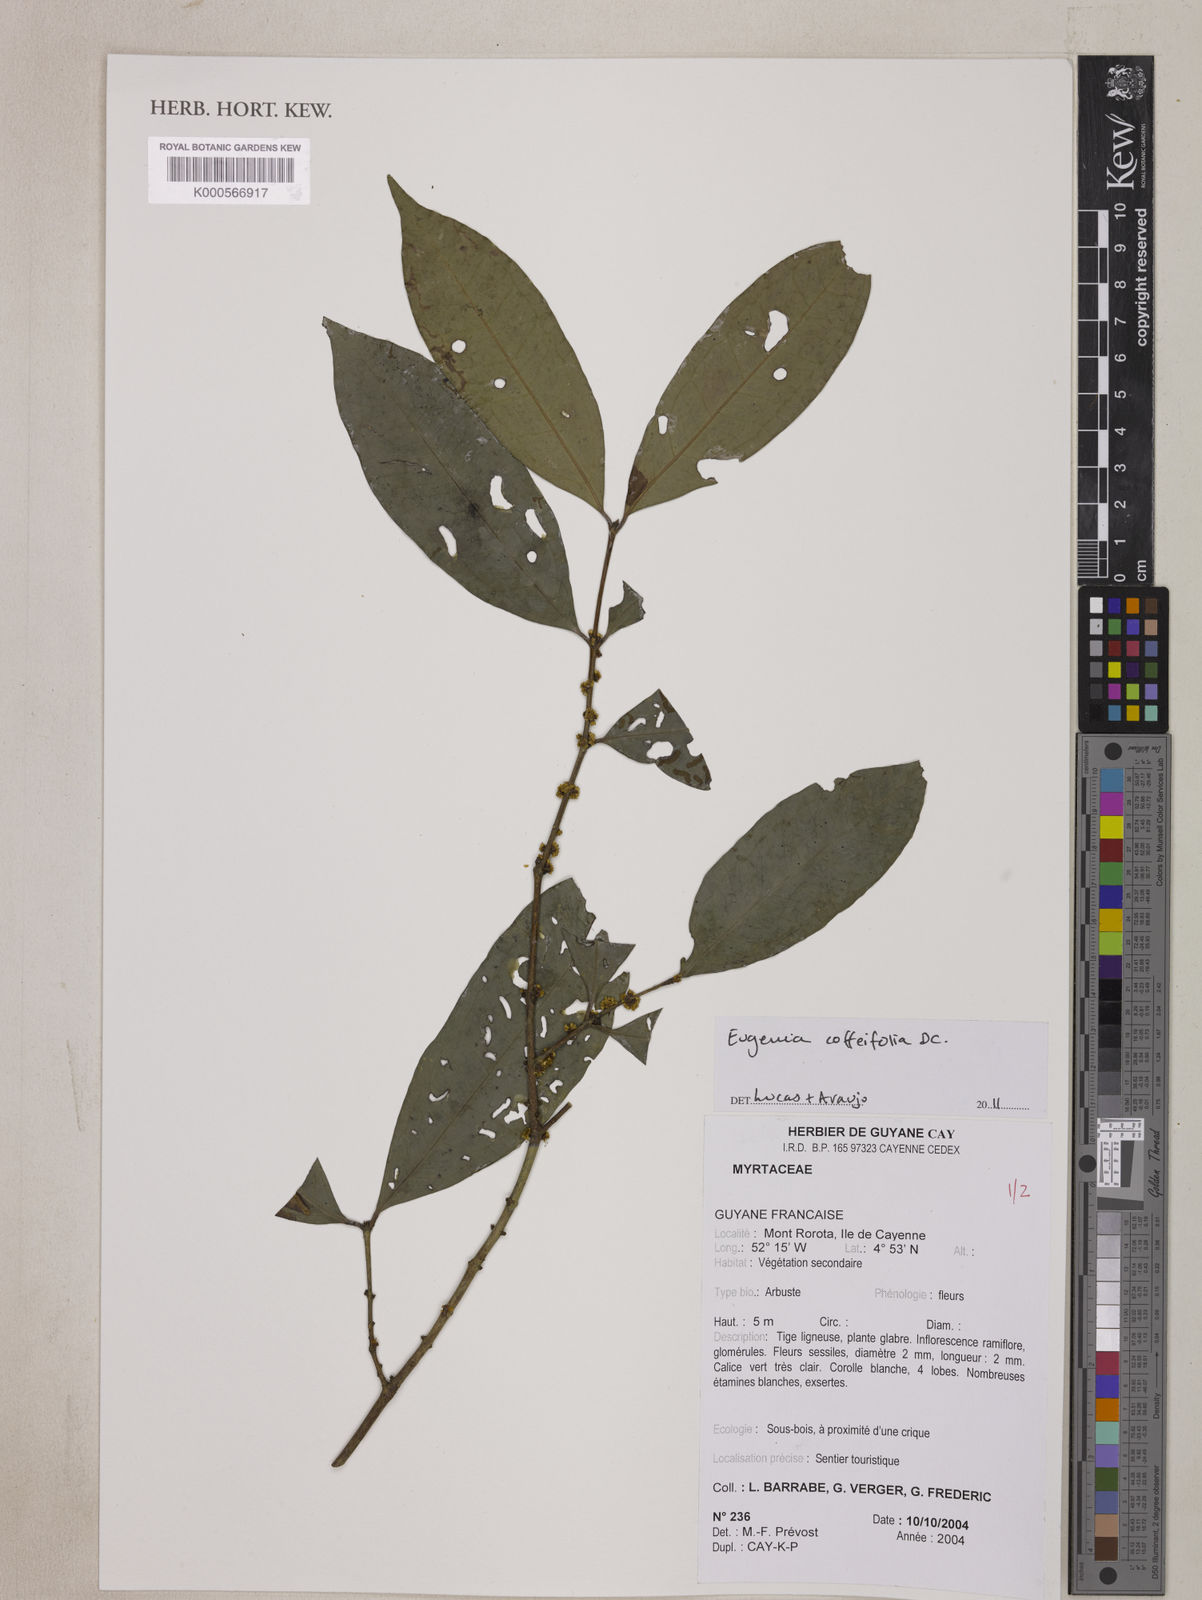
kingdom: Plantae
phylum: Tracheophyta
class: Magnoliopsida
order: Myrtales
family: Myrtaceae
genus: Eugenia
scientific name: Eugenia coffeifolia
